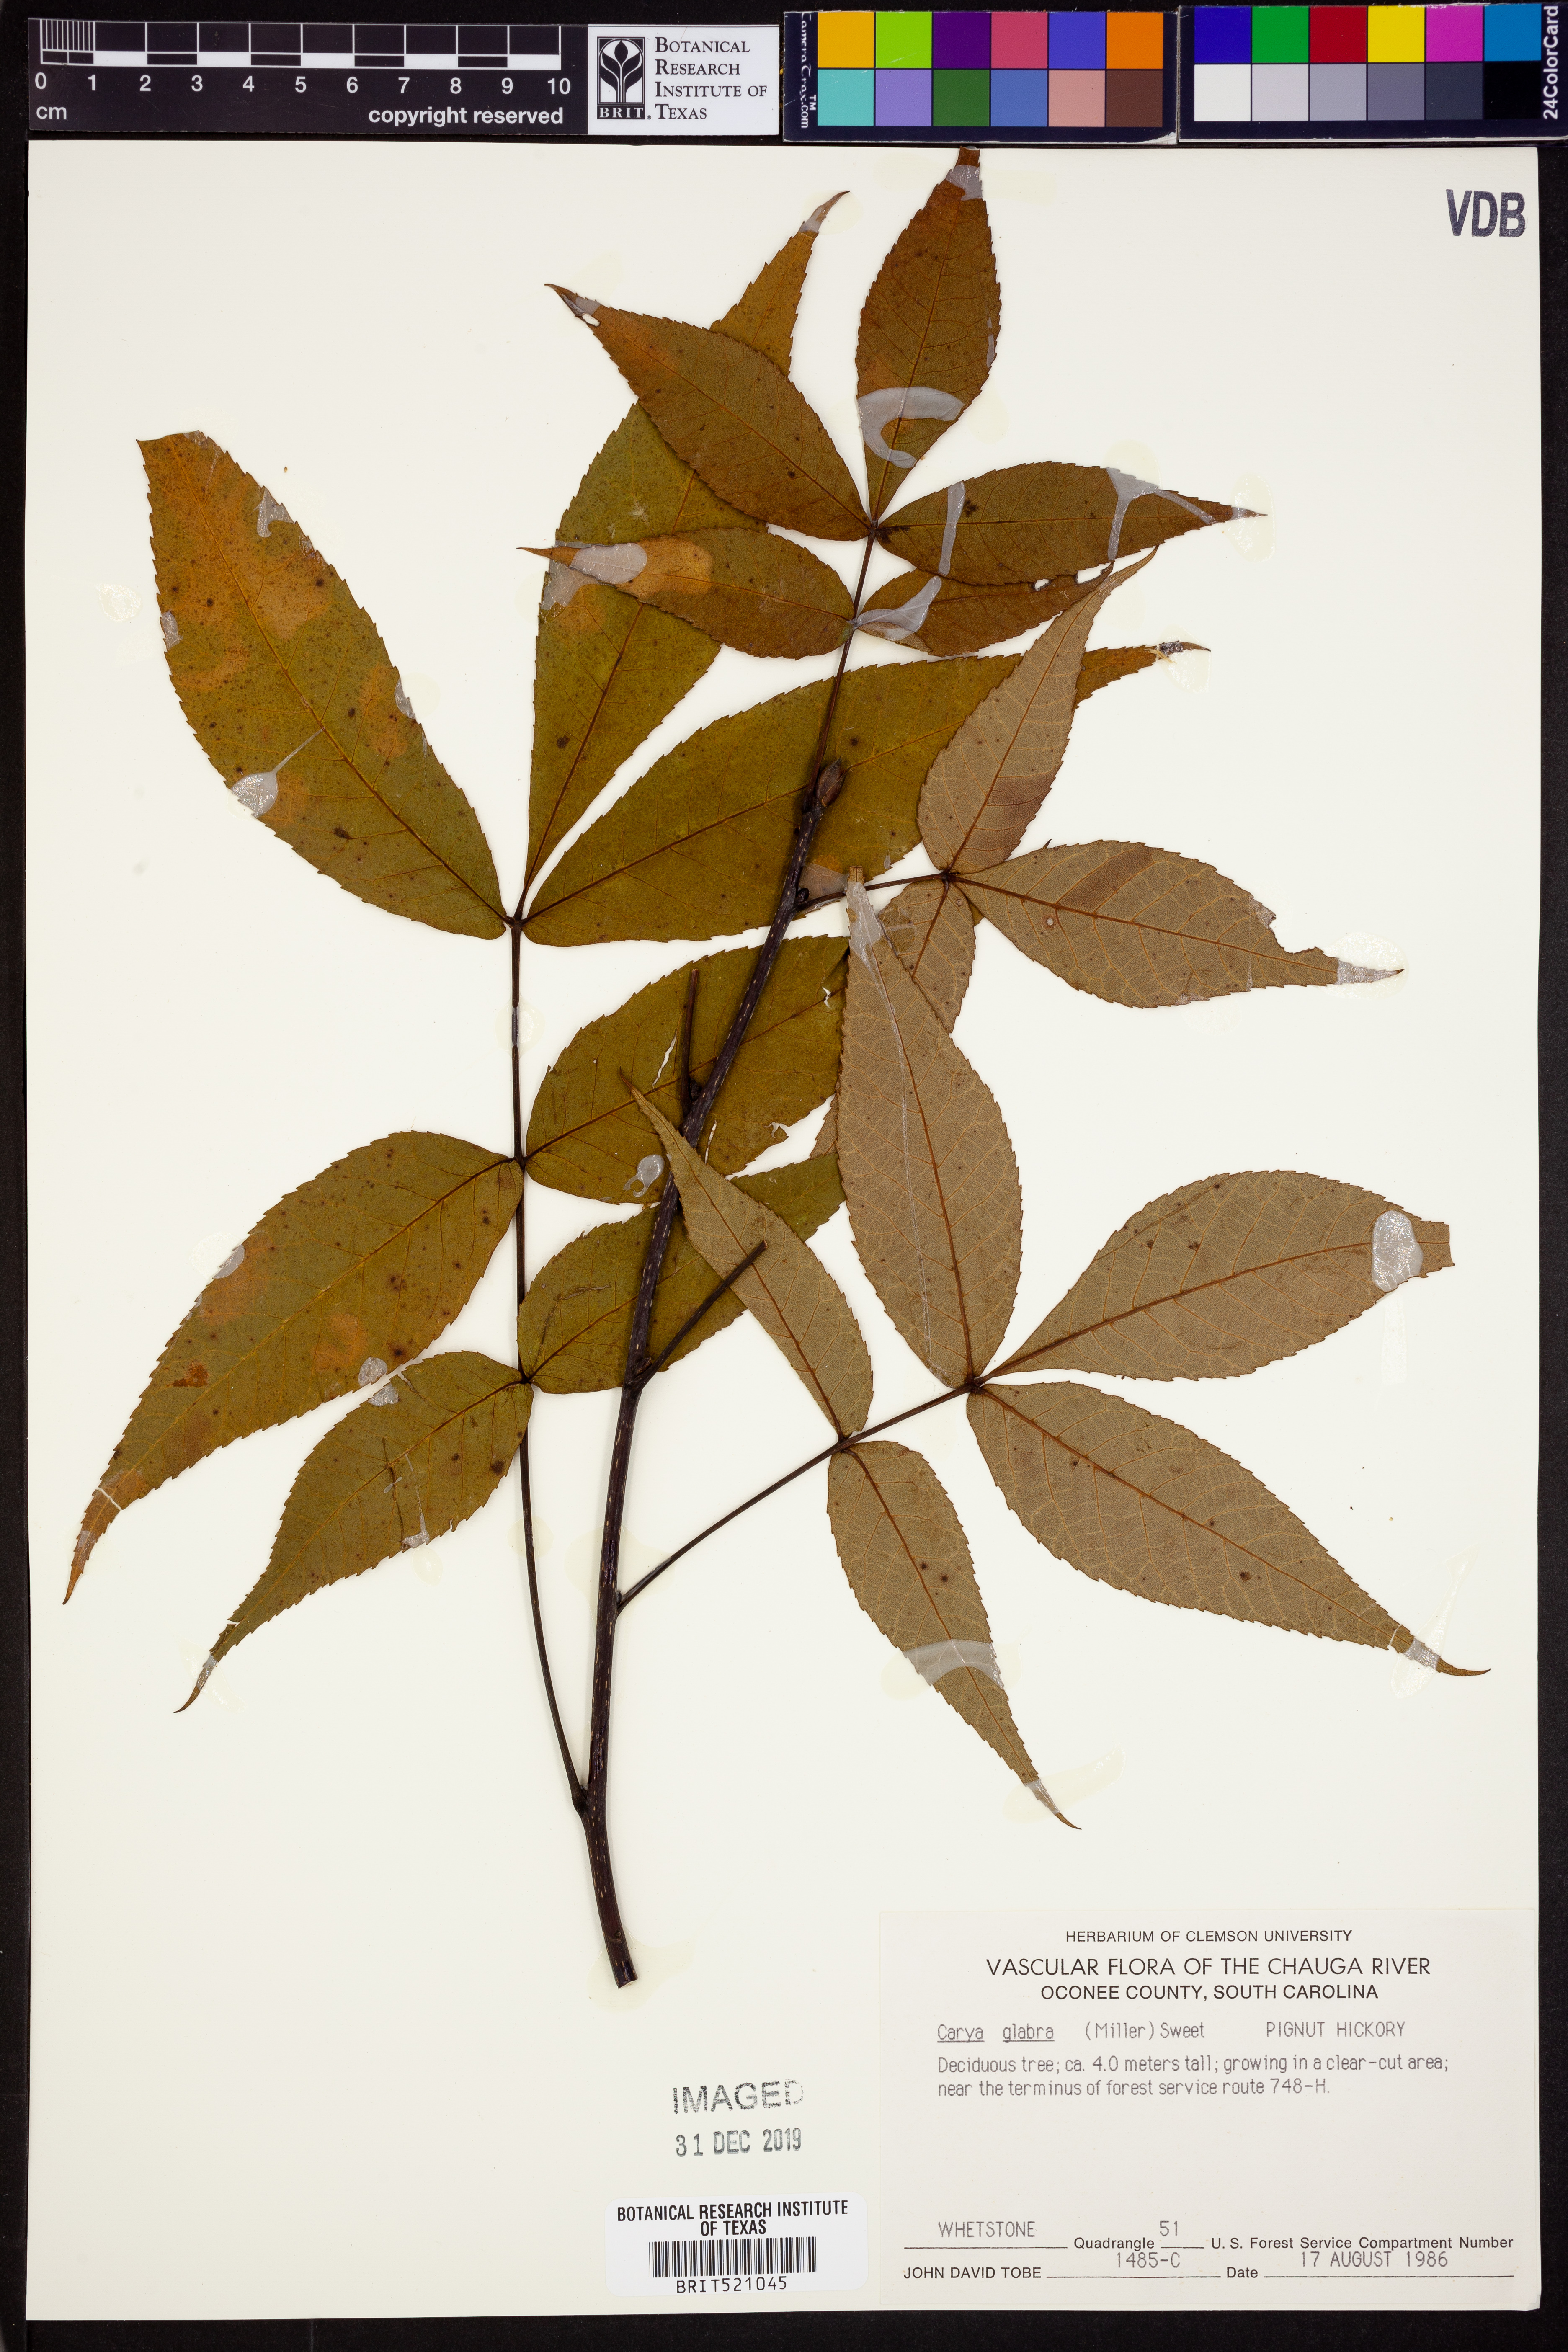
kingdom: Plantae
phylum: Tracheophyta
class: Magnoliopsida
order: Fagales
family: Juglandaceae
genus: Carya
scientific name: Carya glabra
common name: Pignut hickory
